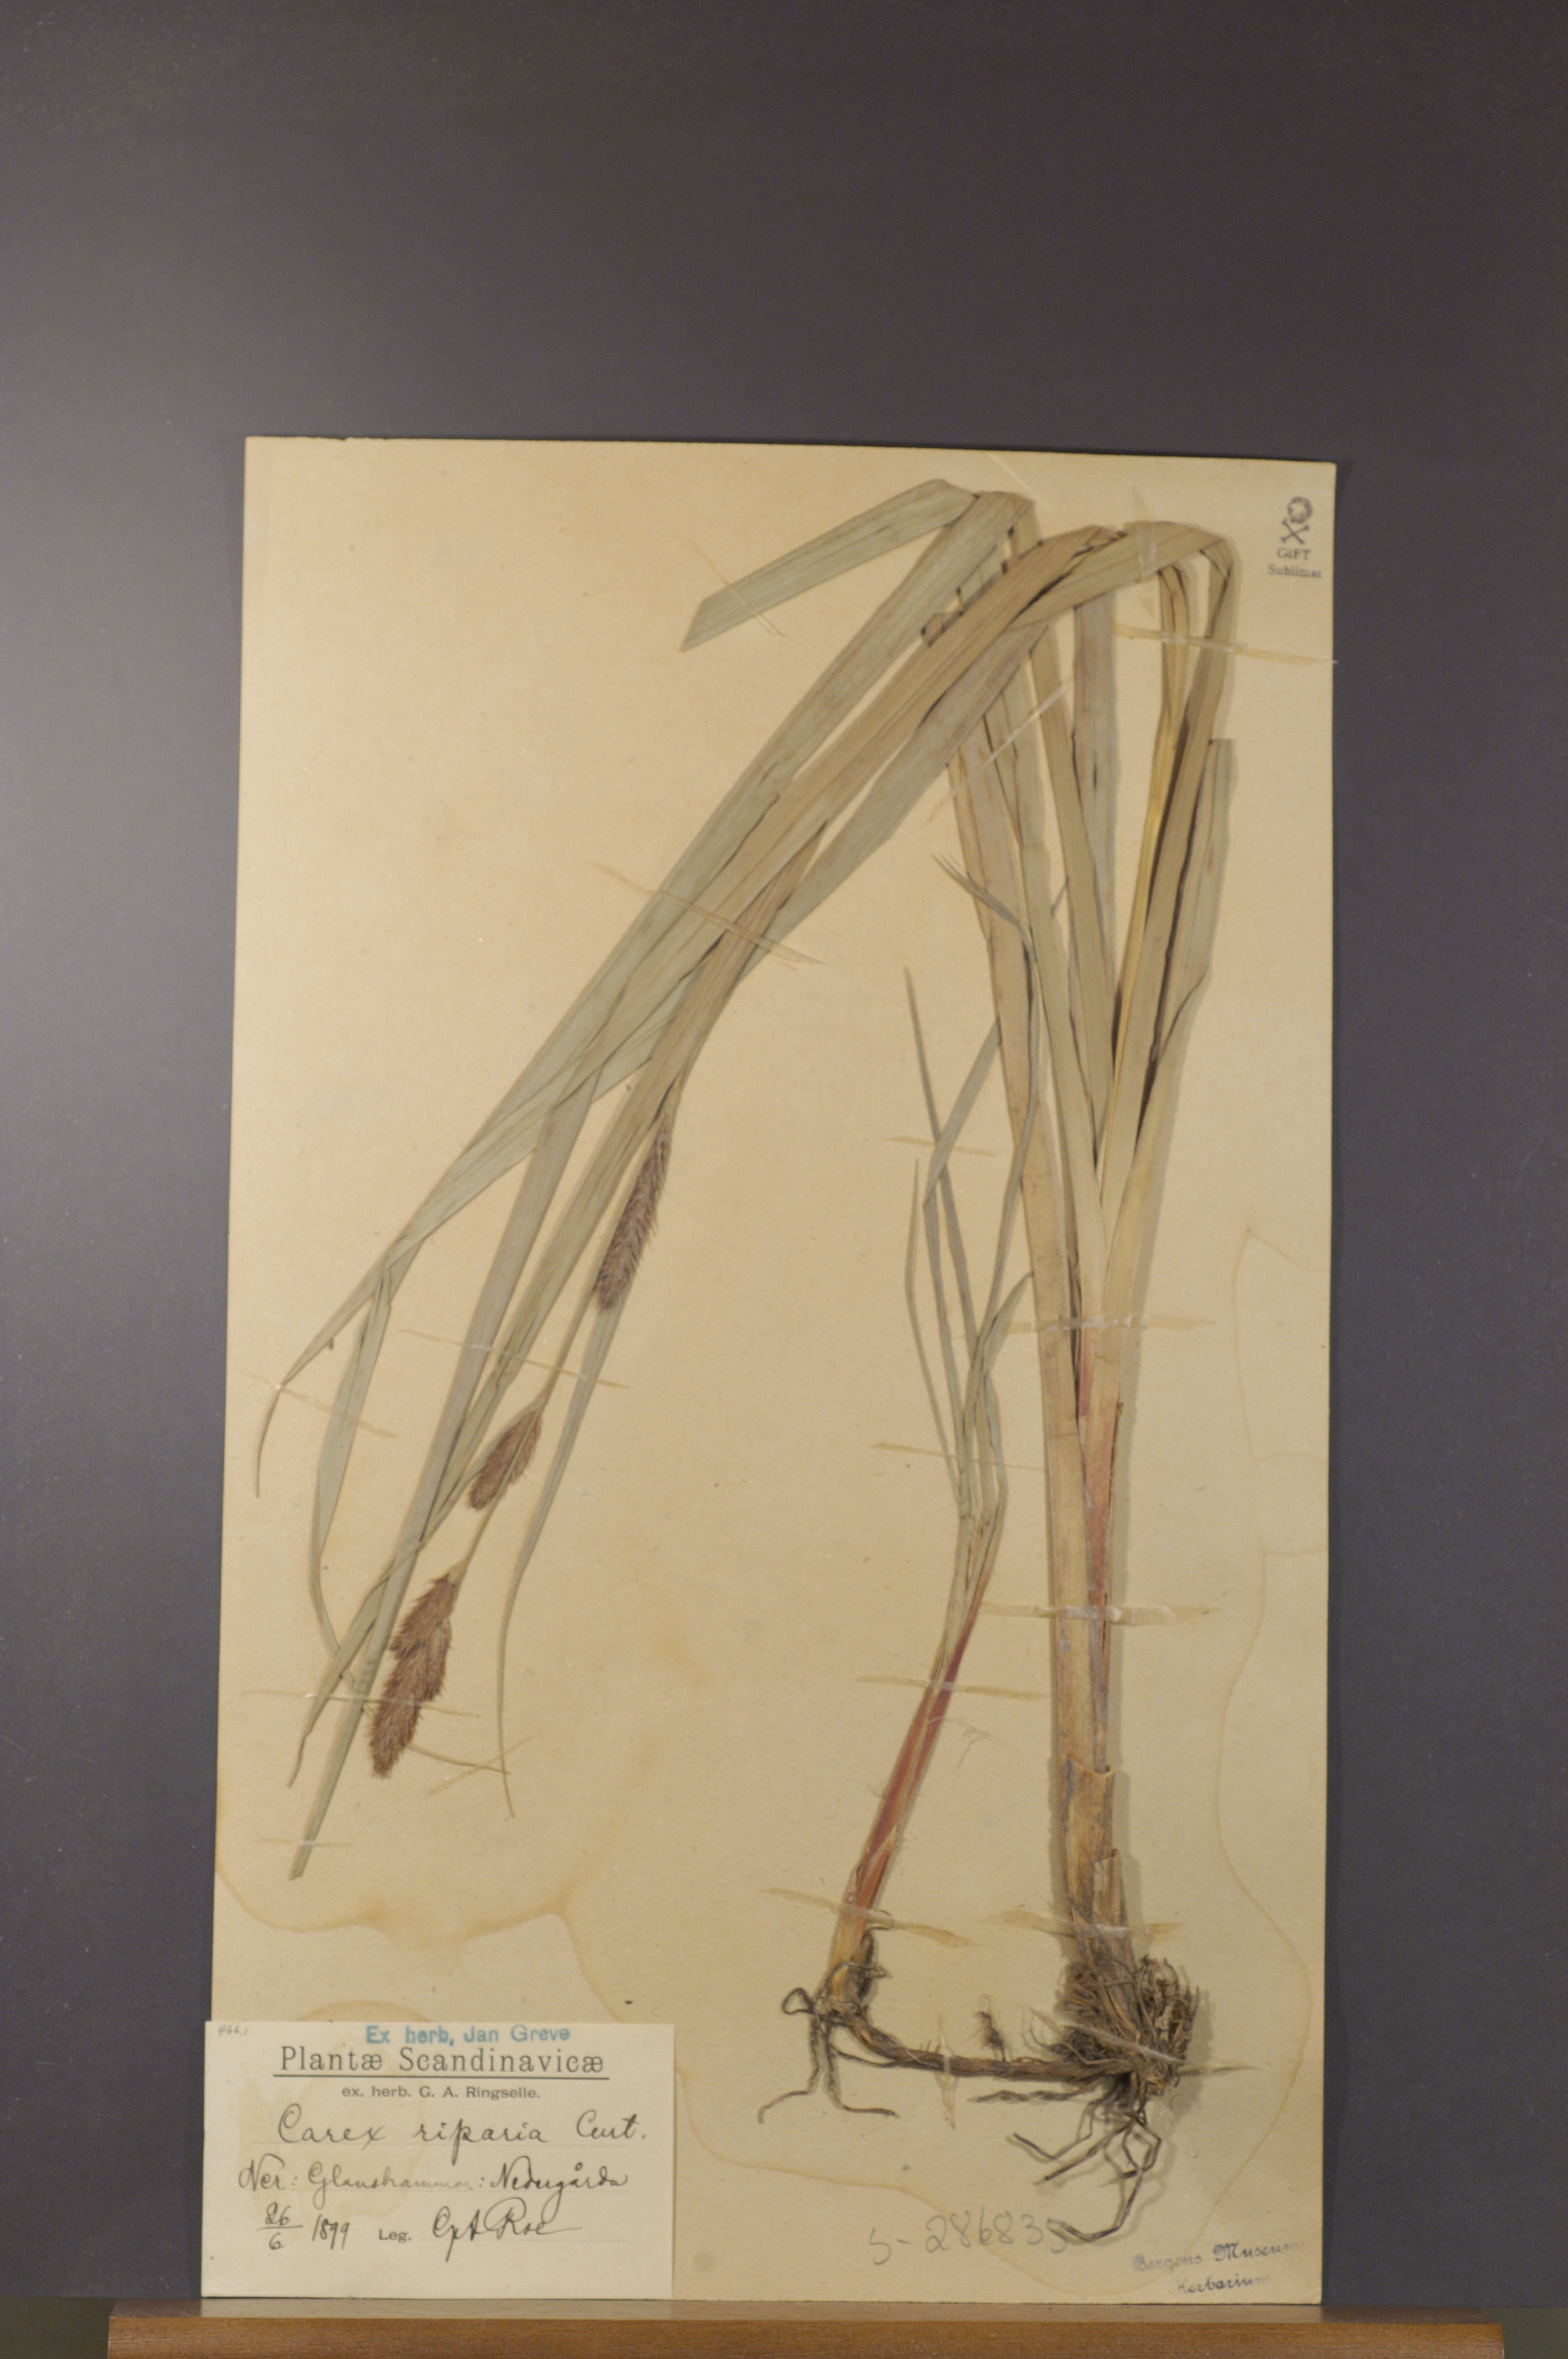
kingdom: Plantae
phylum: Tracheophyta
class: Liliopsida
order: Poales
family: Cyperaceae
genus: Carex
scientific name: Carex riparia
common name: Greater pond-sedge
